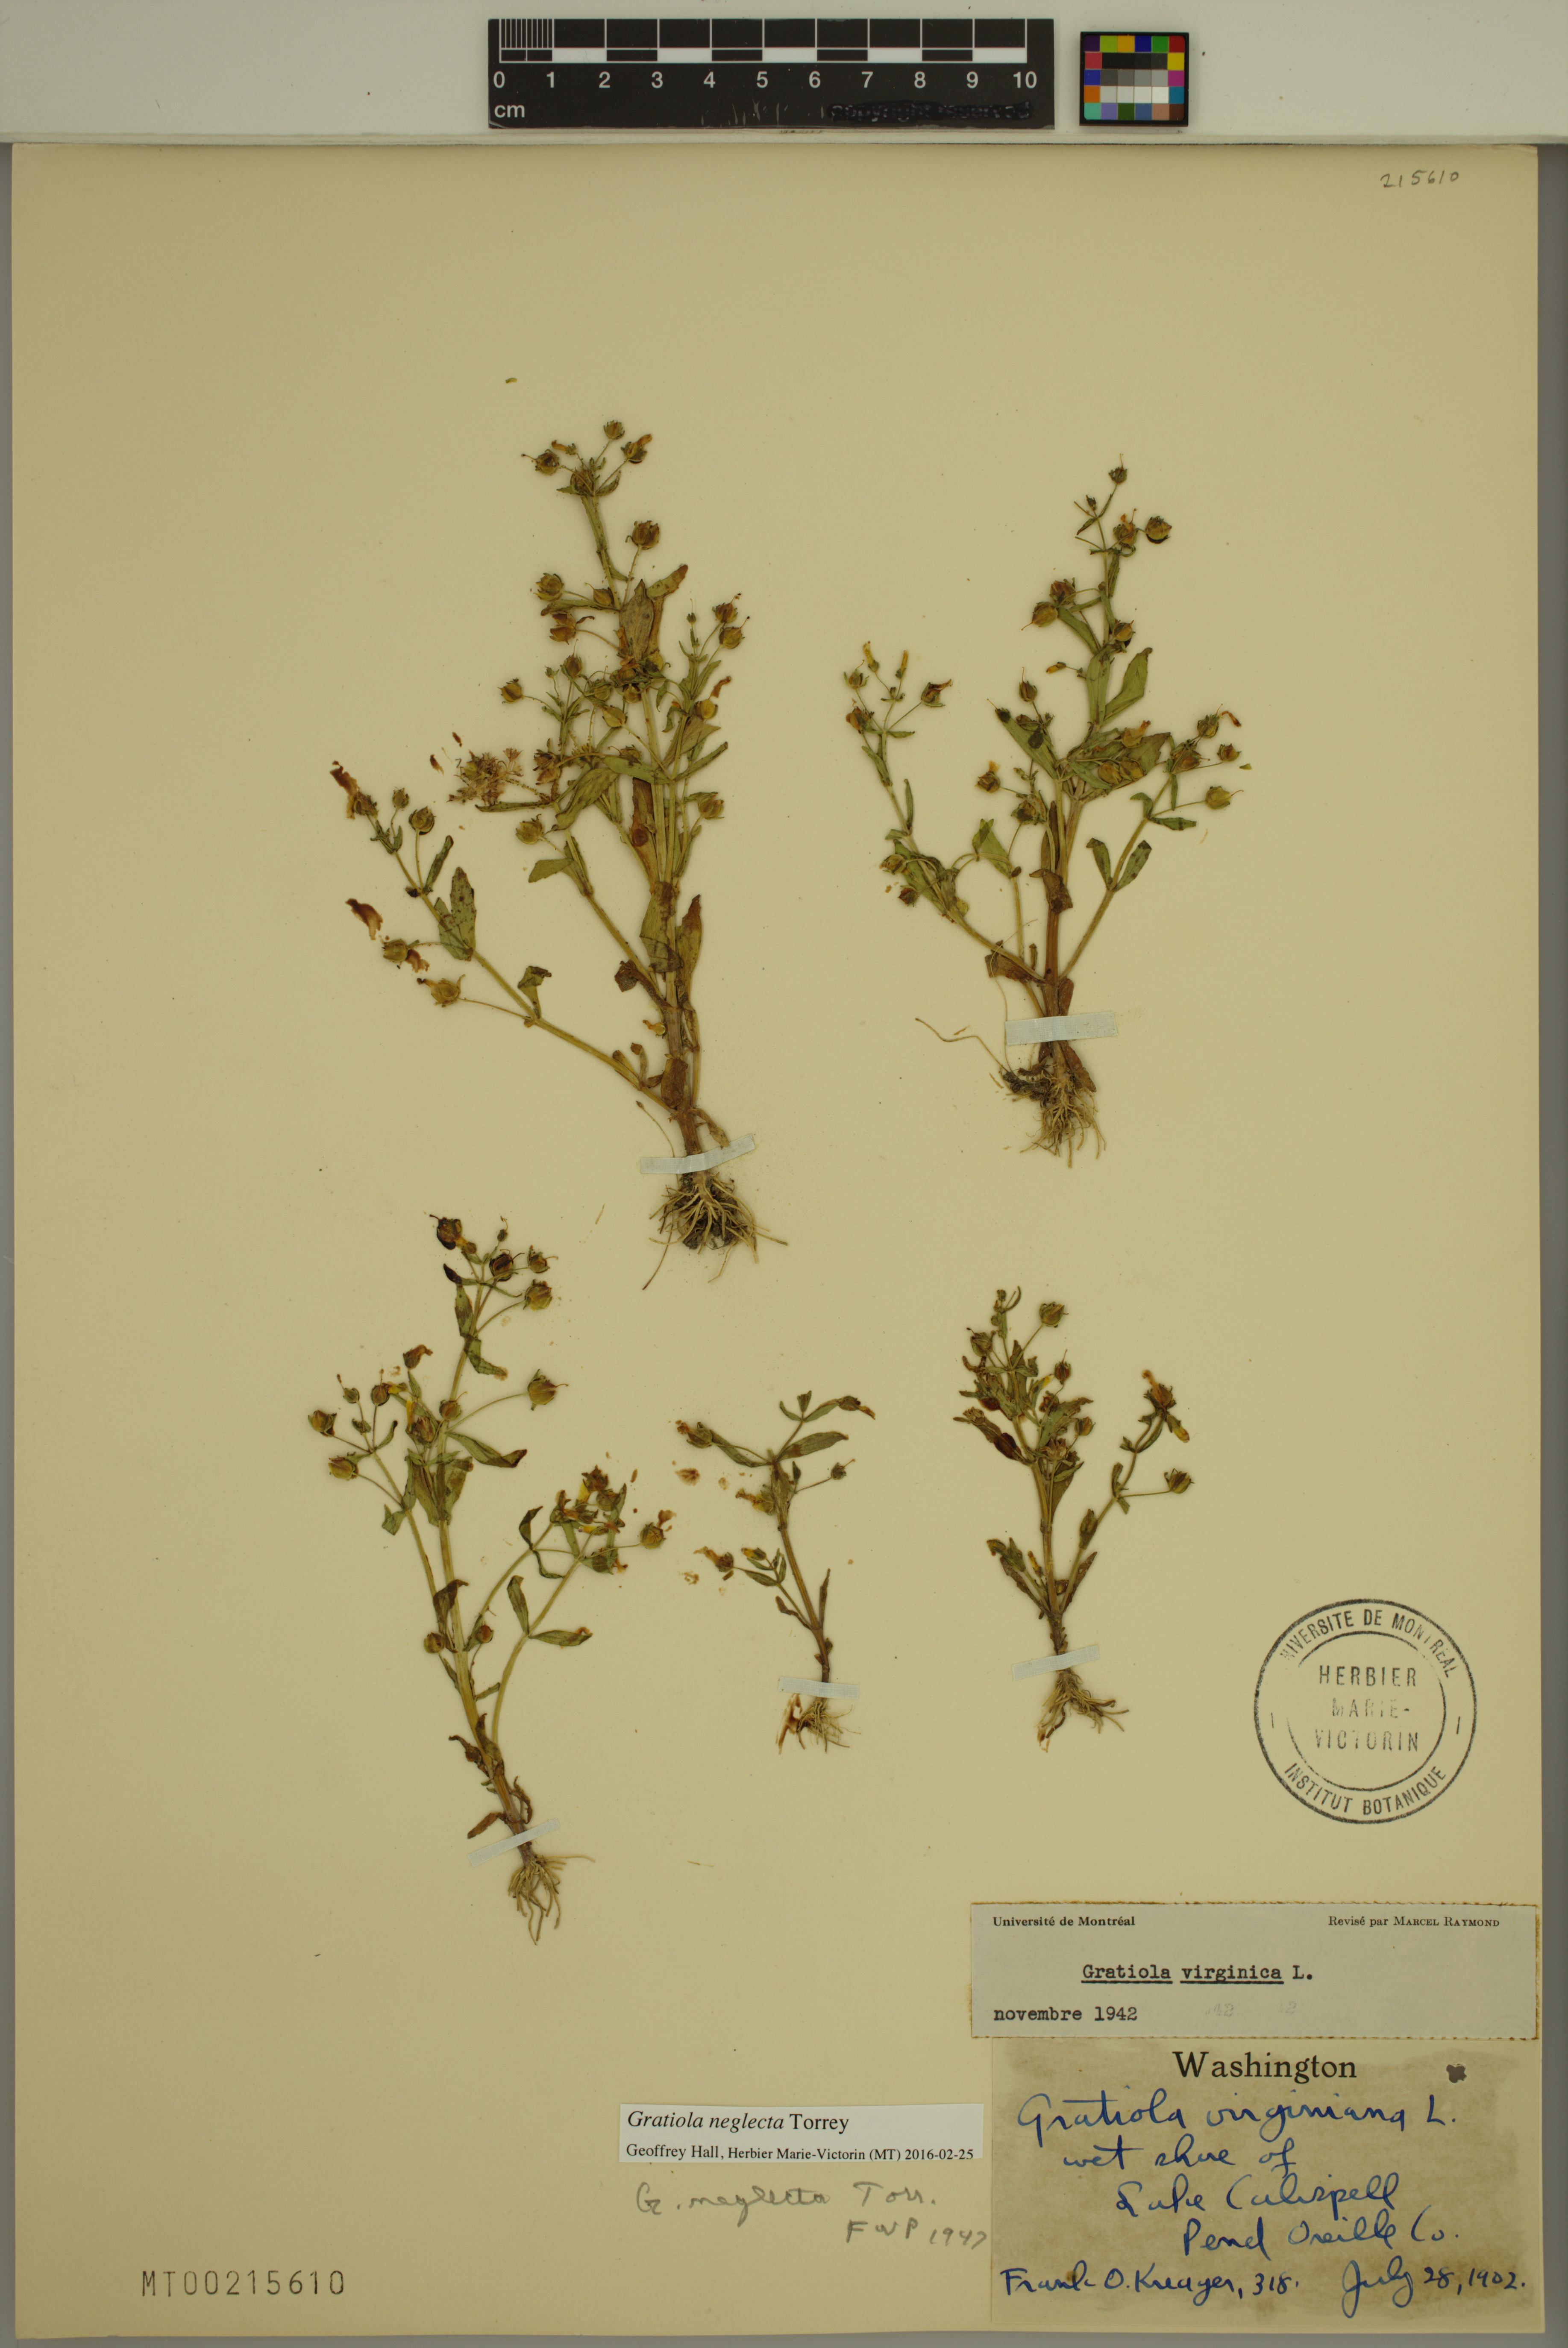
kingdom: Plantae
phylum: Tracheophyta
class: Magnoliopsida
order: Lamiales
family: Plantaginaceae
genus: Gratiola
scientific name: Gratiola neglecta
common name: American hedge-hyssop
